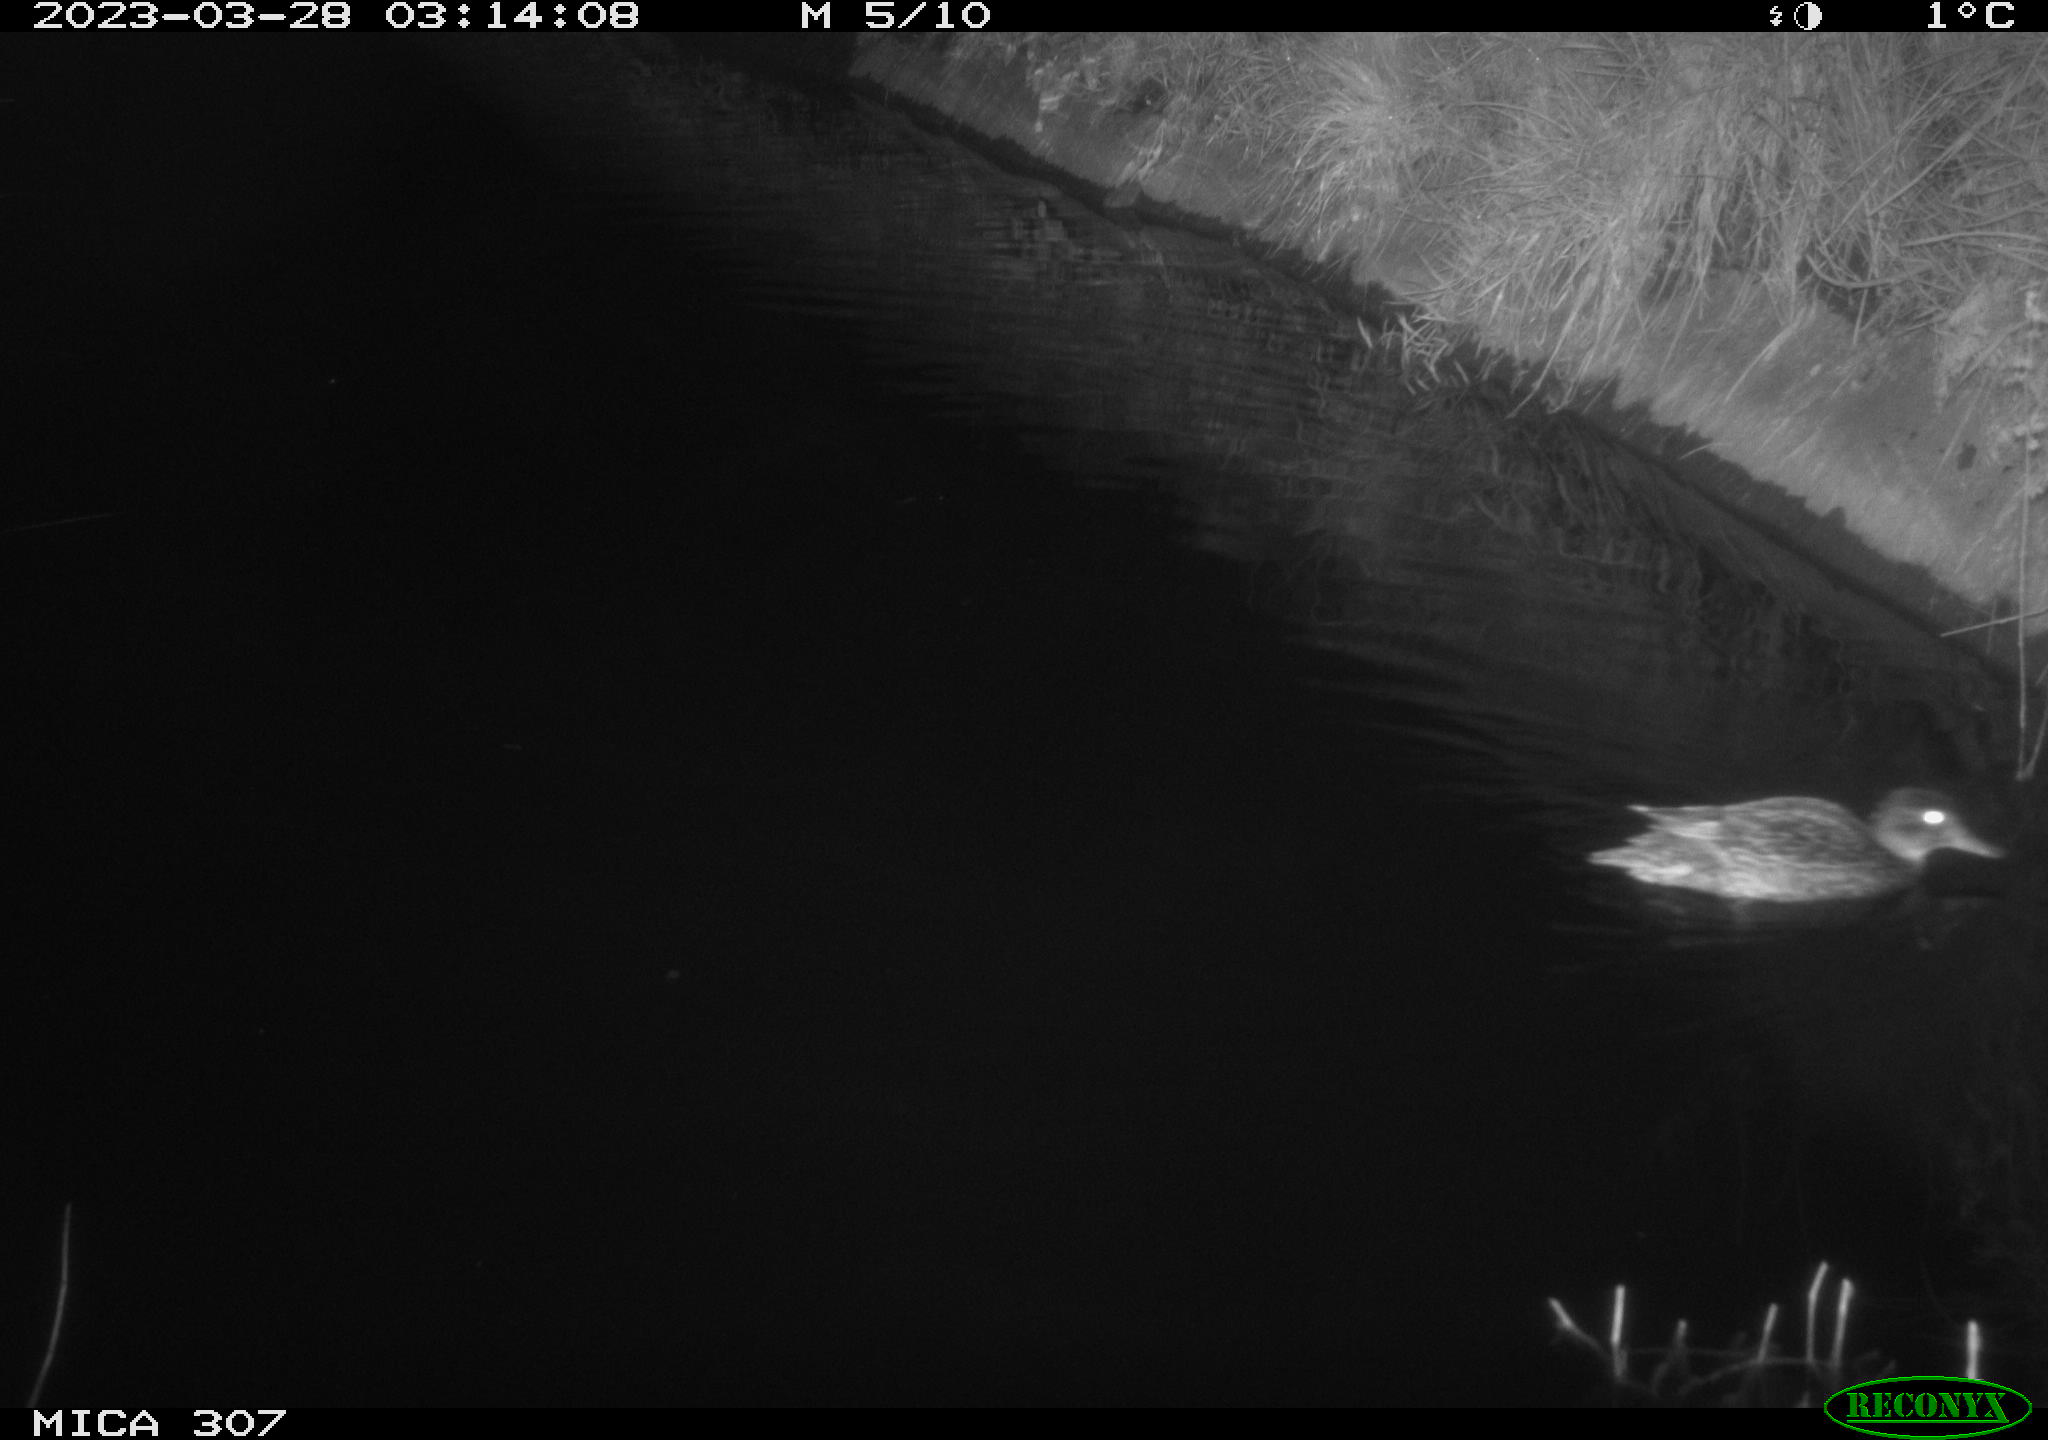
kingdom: Animalia
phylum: Chordata
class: Aves
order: Anseriformes
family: Anatidae
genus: Anas
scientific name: Anas
